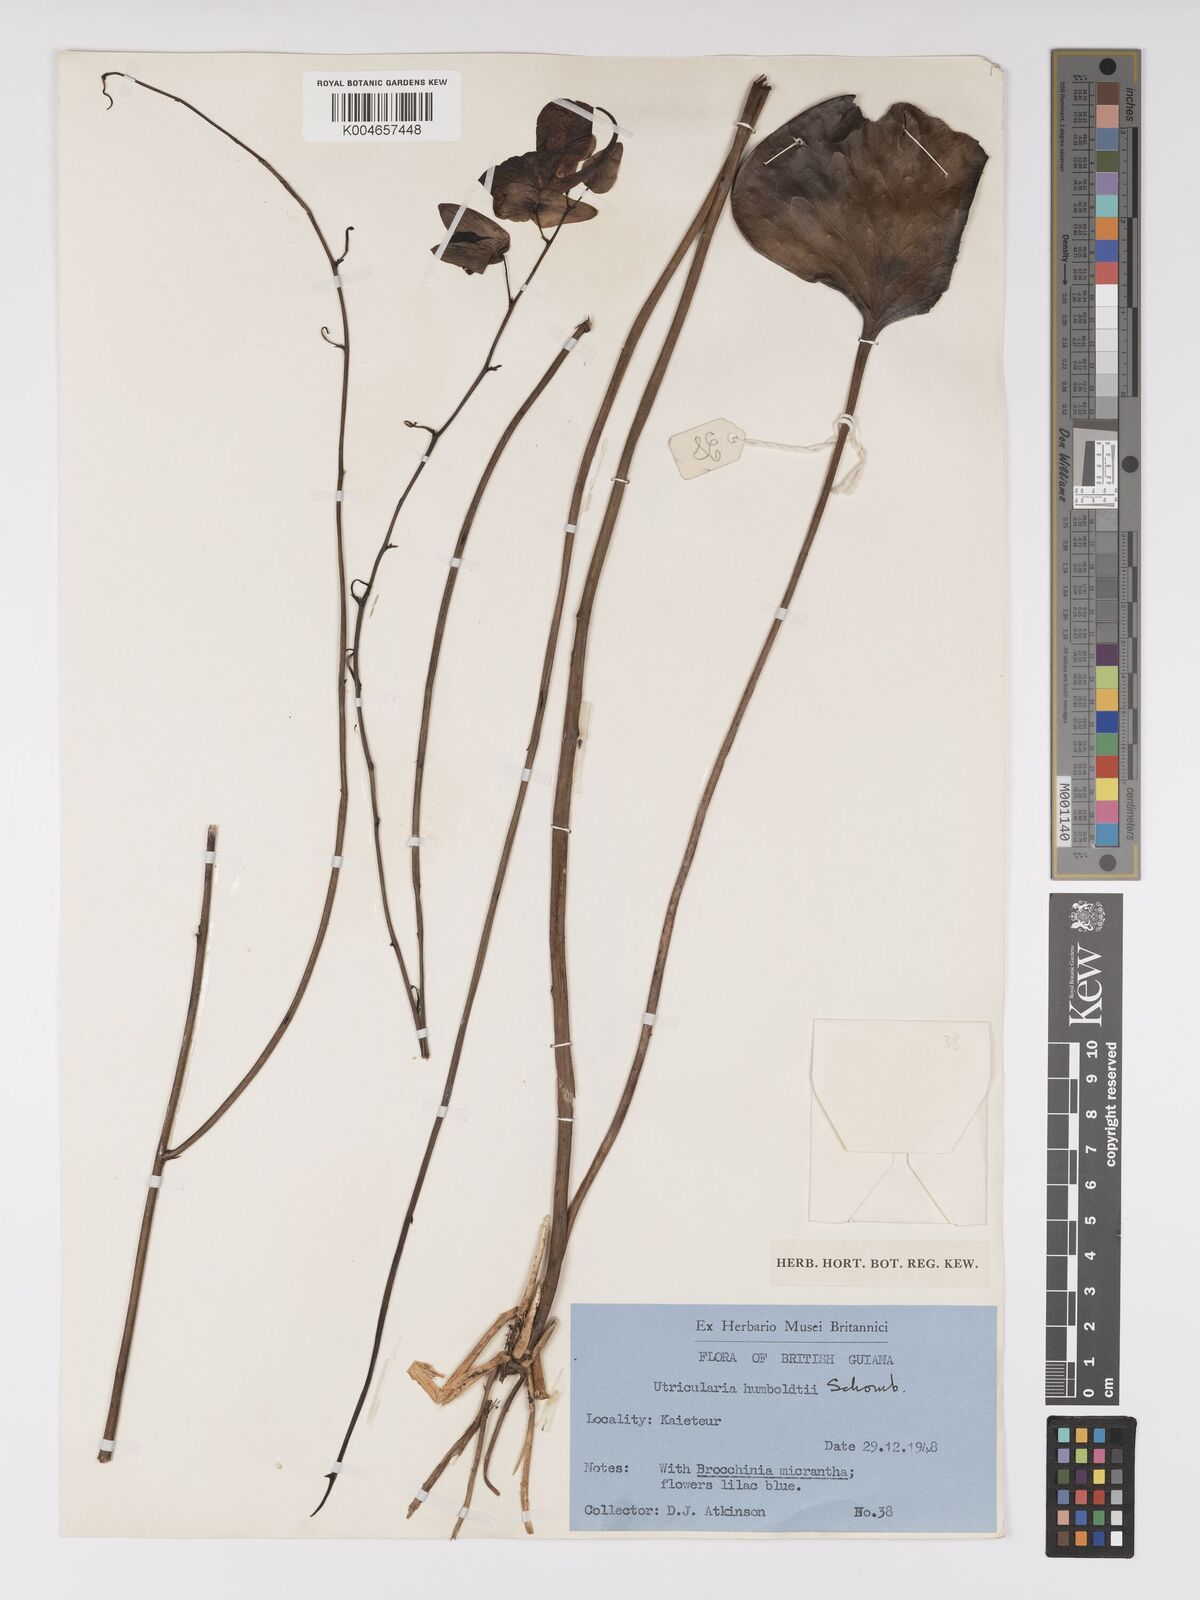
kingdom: Plantae
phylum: Tracheophyta
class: Magnoliopsida
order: Lamiales
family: Lentibulariaceae
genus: Utricularia
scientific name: Utricularia humboldtii
